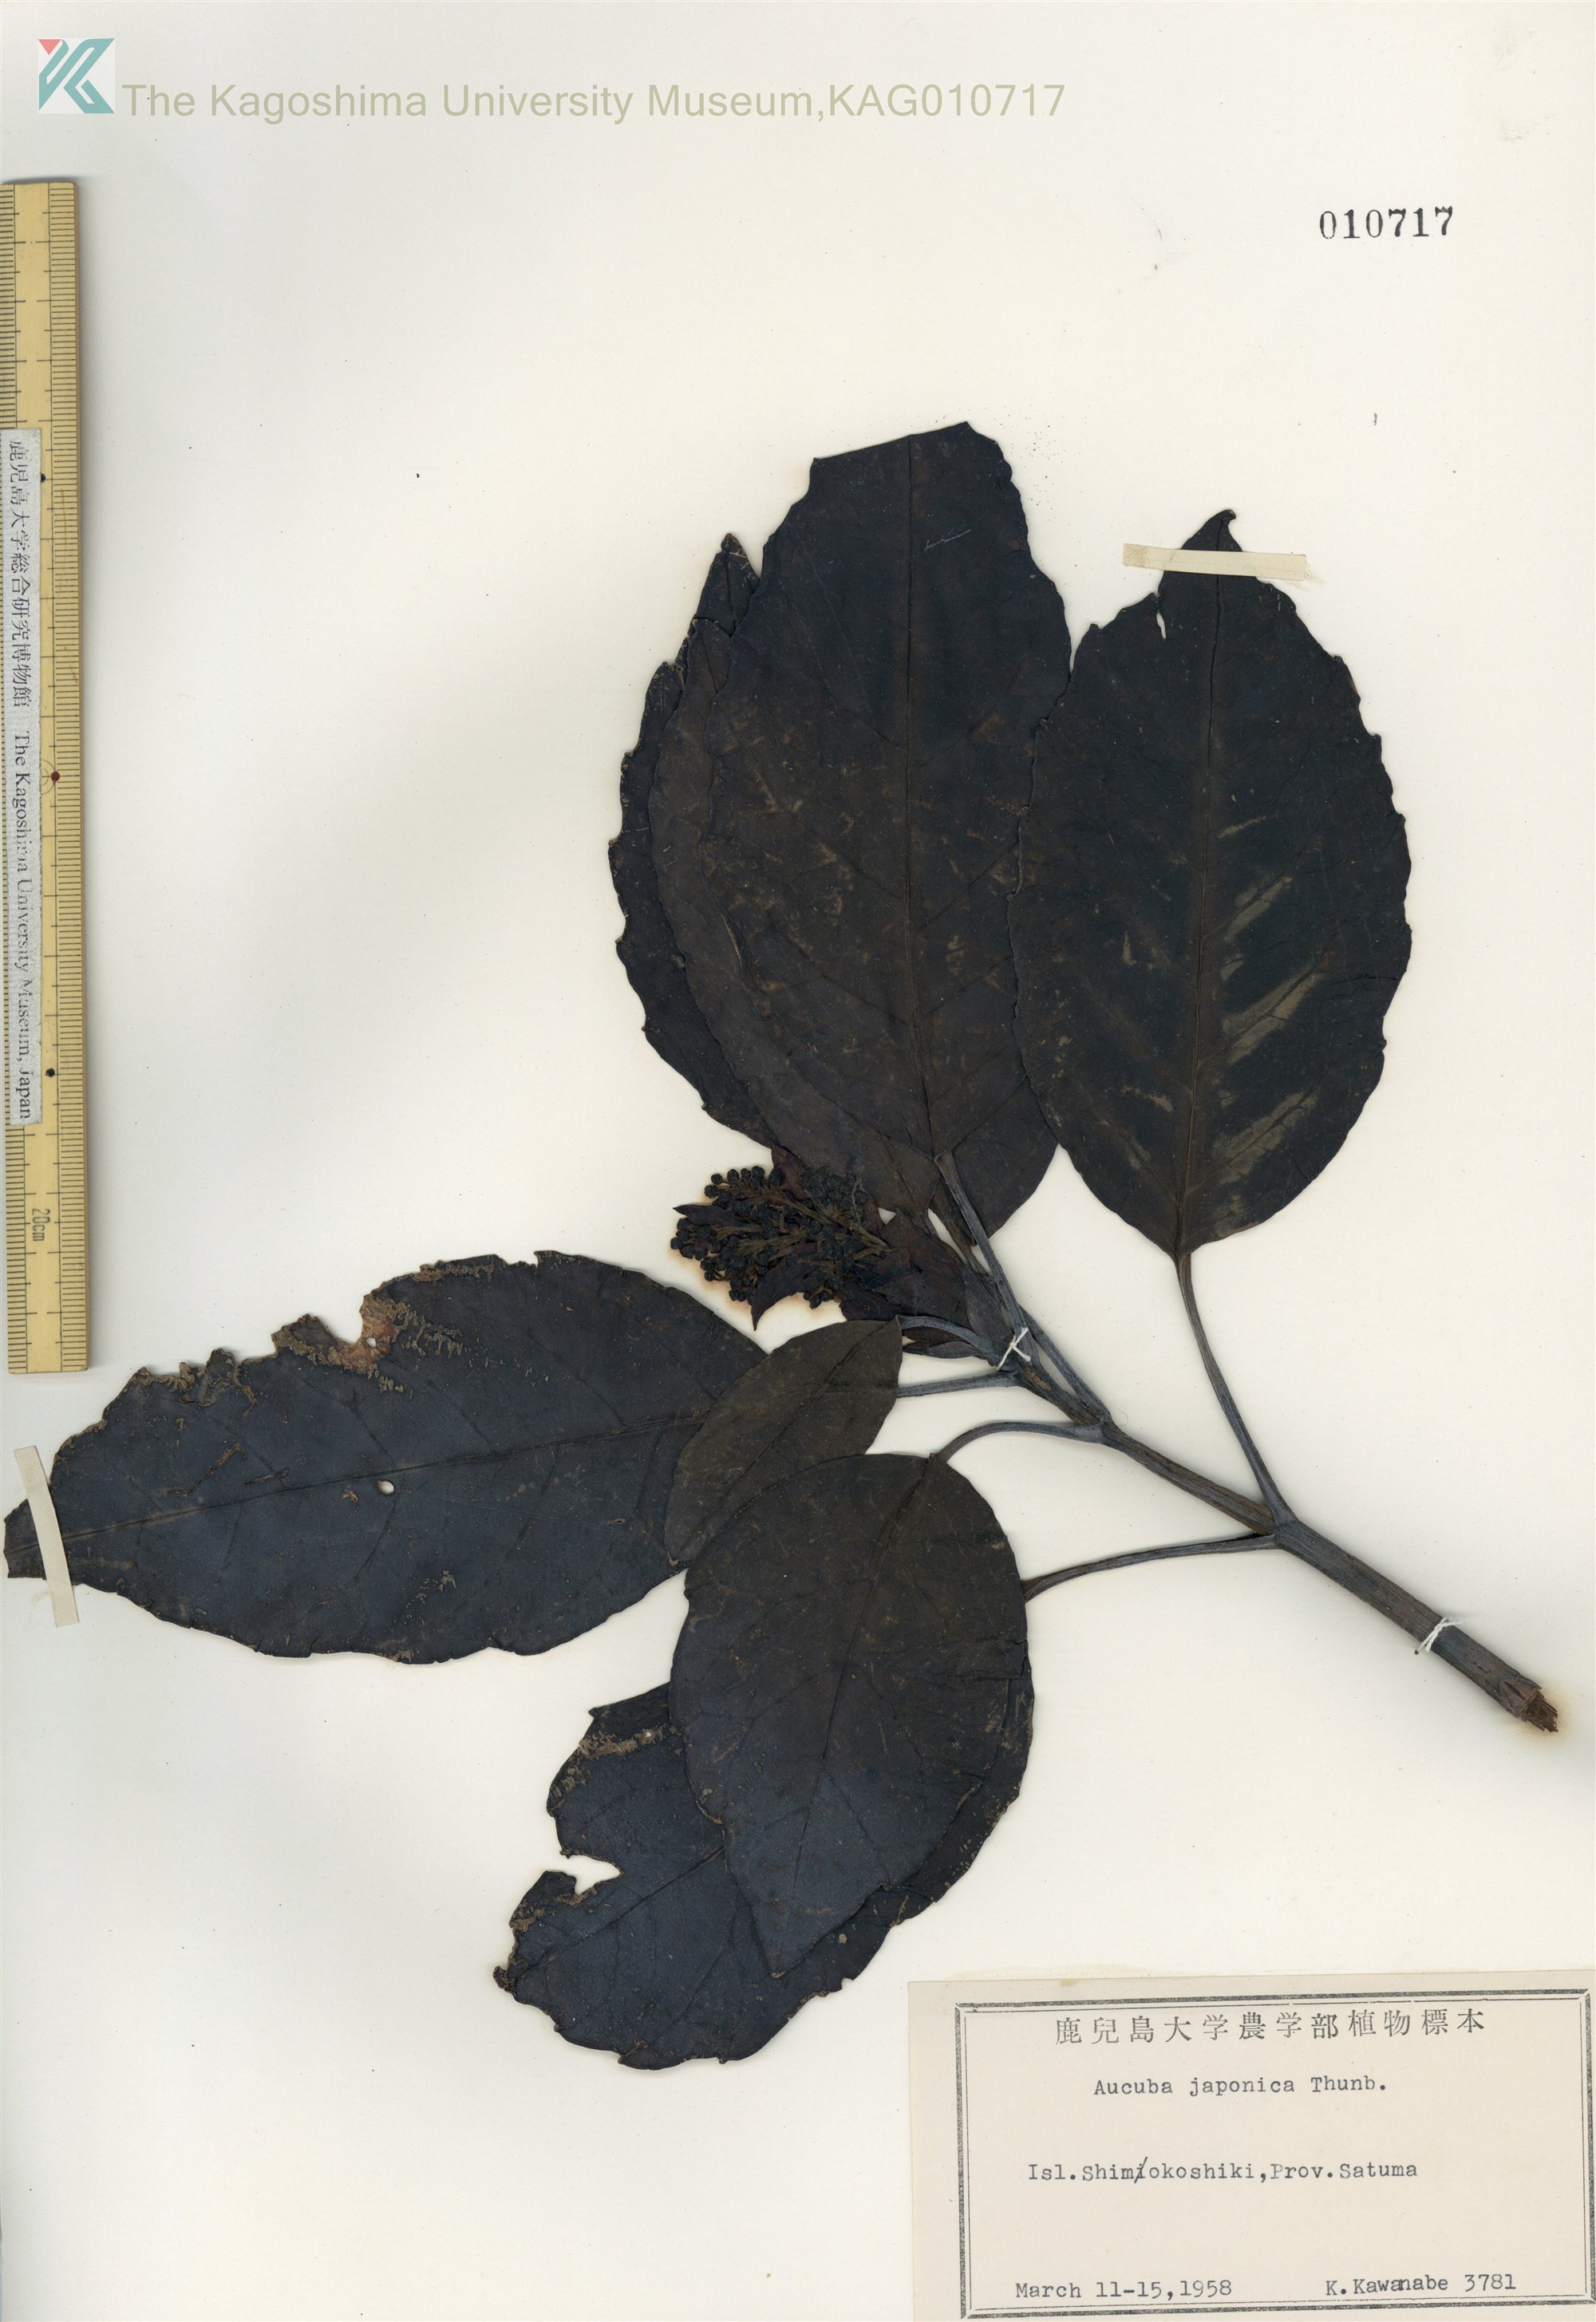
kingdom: Plantae
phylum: Tracheophyta
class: Magnoliopsida
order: Garryales
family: Garryaceae
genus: Aucuba
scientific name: Aucuba japonica
